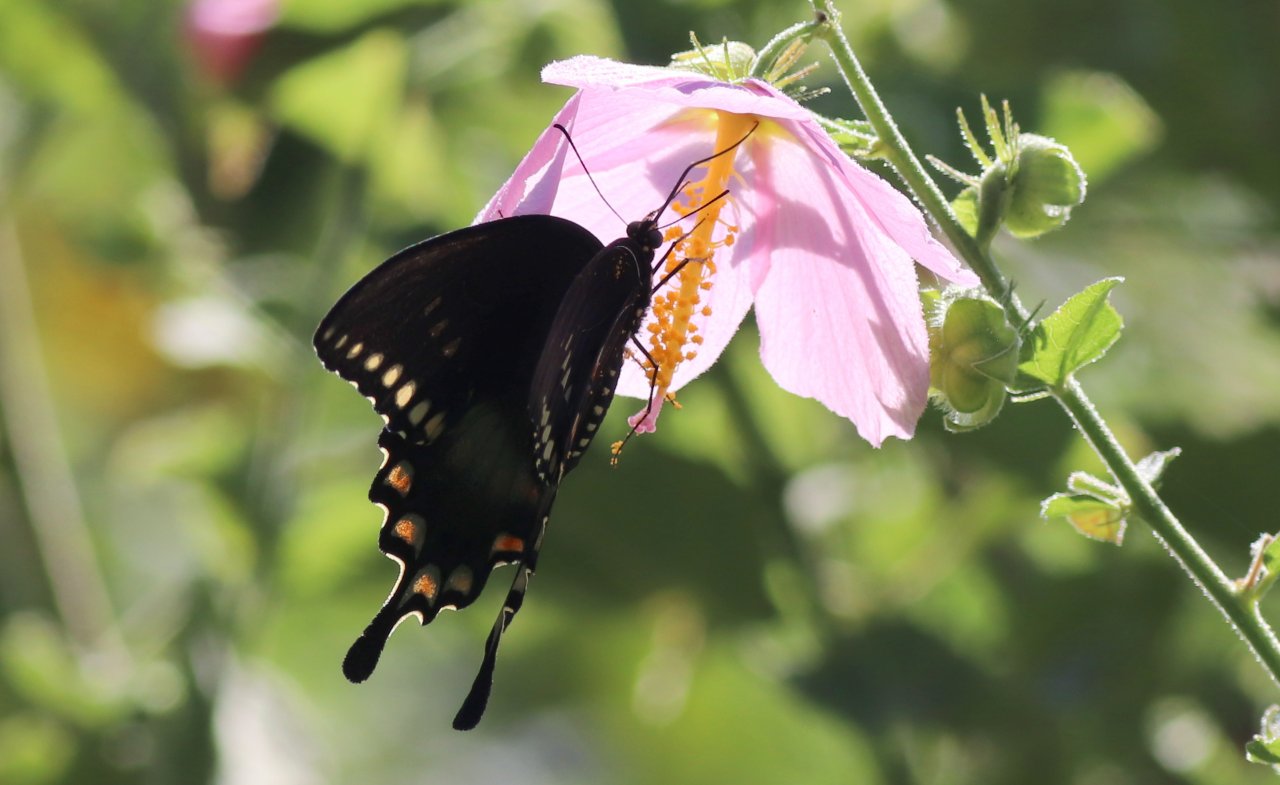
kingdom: Animalia
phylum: Arthropoda
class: Insecta
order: Lepidoptera
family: Papilionidae
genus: Pterourus
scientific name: Pterourus troilus
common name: Spicebush Swallowtail
